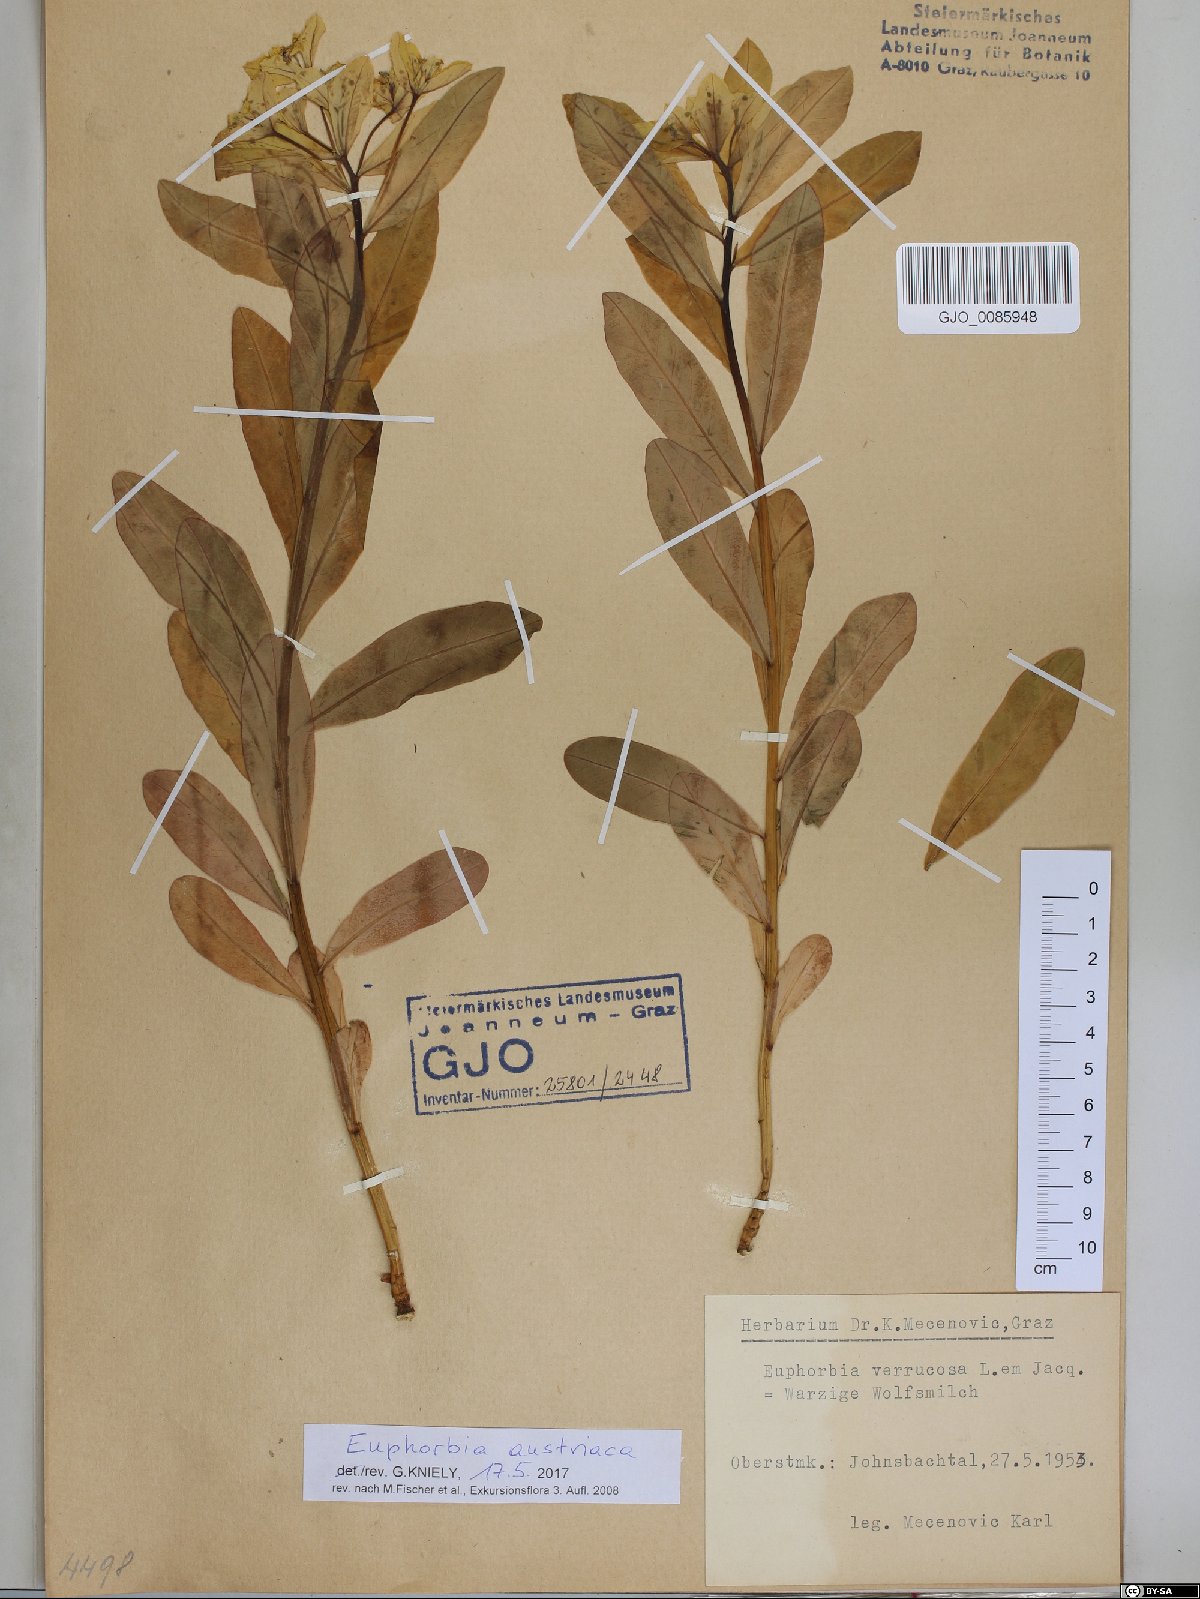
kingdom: Plantae
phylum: Tracheophyta
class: Magnoliopsida
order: Malpighiales
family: Euphorbiaceae
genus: Euphorbia
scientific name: Euphorbia austriaca
